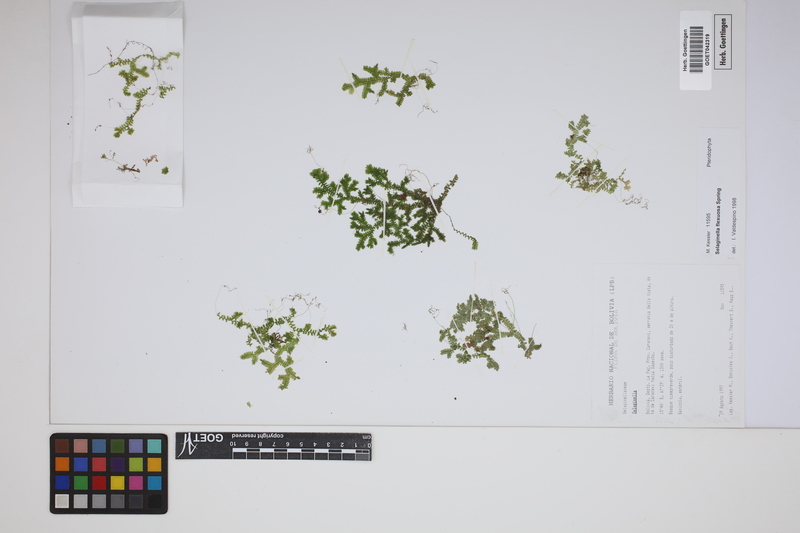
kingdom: Plantae
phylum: Tracheophyta
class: Lycopodiopsida
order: Selaginellales
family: Selaginellaceae
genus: Selaginella
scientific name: Selaginella flexuosa
